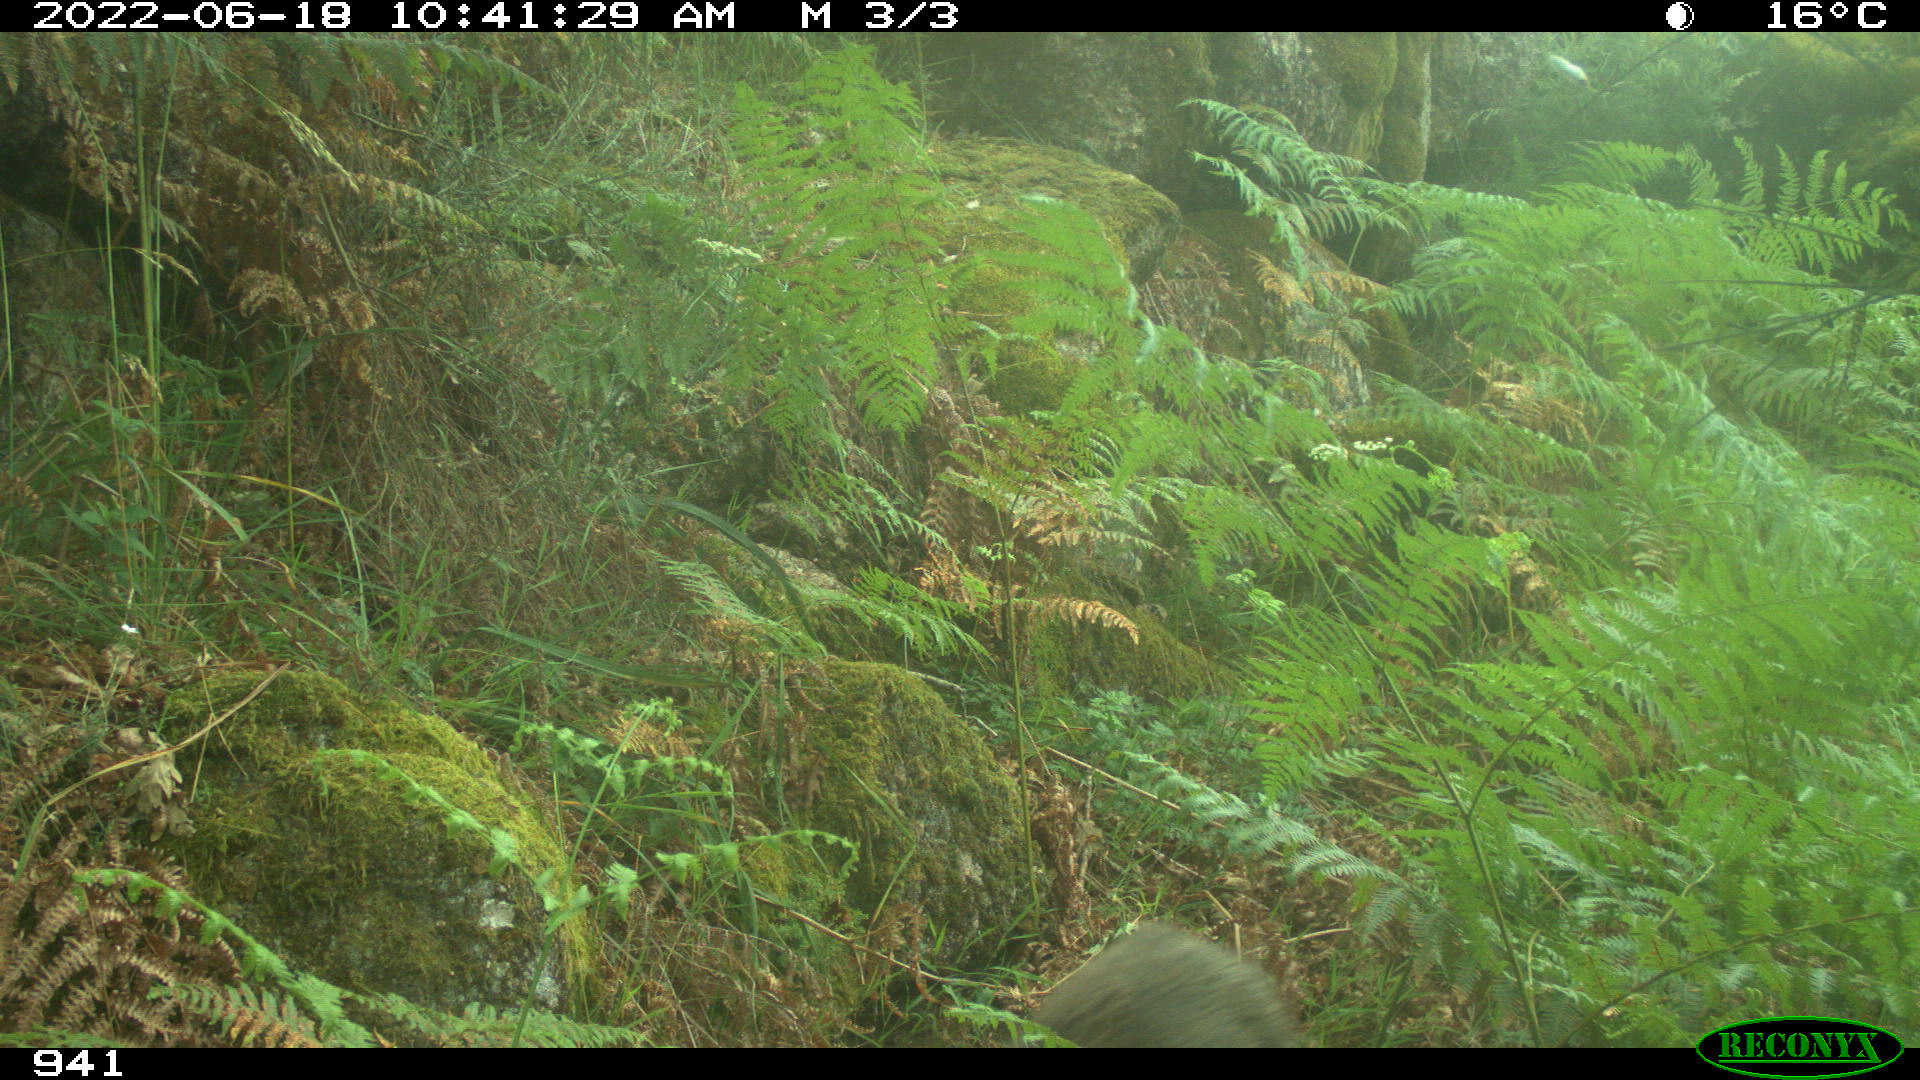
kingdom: Animalia
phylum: Chordata
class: Mammalia
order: Artiodactyla
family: Suidae
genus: Sus
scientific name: Sus scrofa
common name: Wild boar
